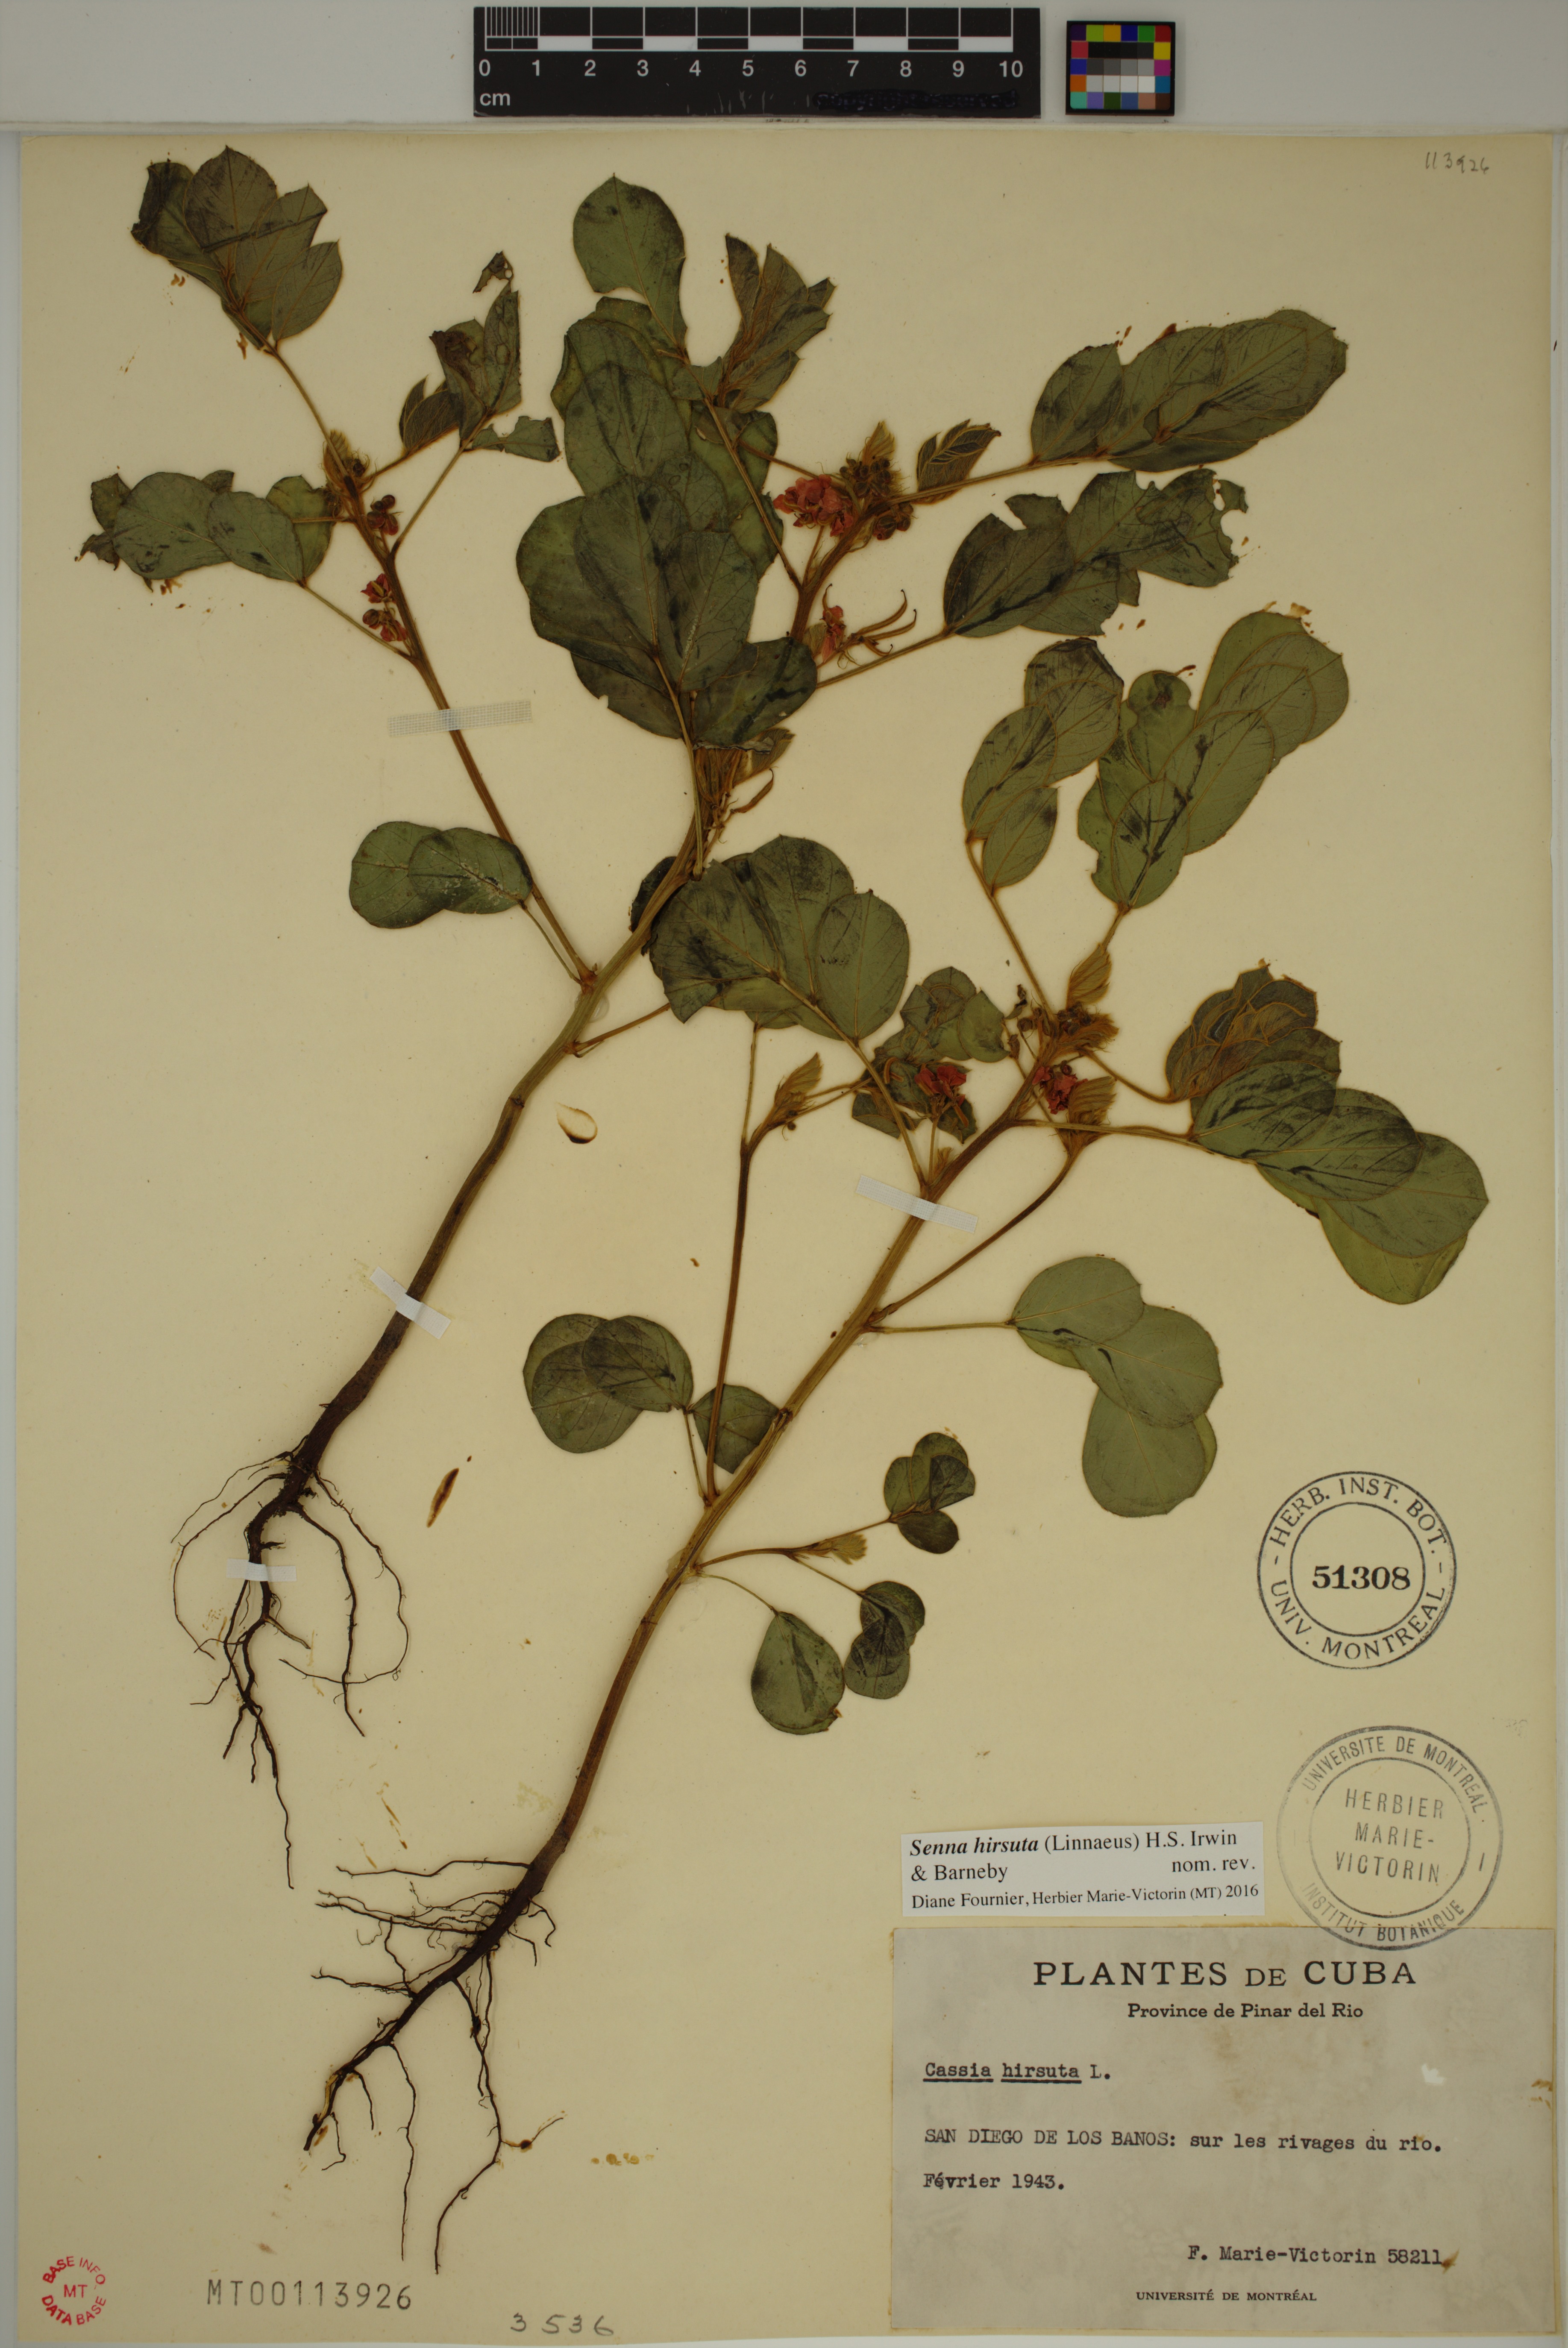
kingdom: Plantae
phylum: Tracheophyta
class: Magnoliopsida
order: Fabales
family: Fabaceae
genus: Senna
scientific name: Senna hirsuta
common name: Woolly senna
